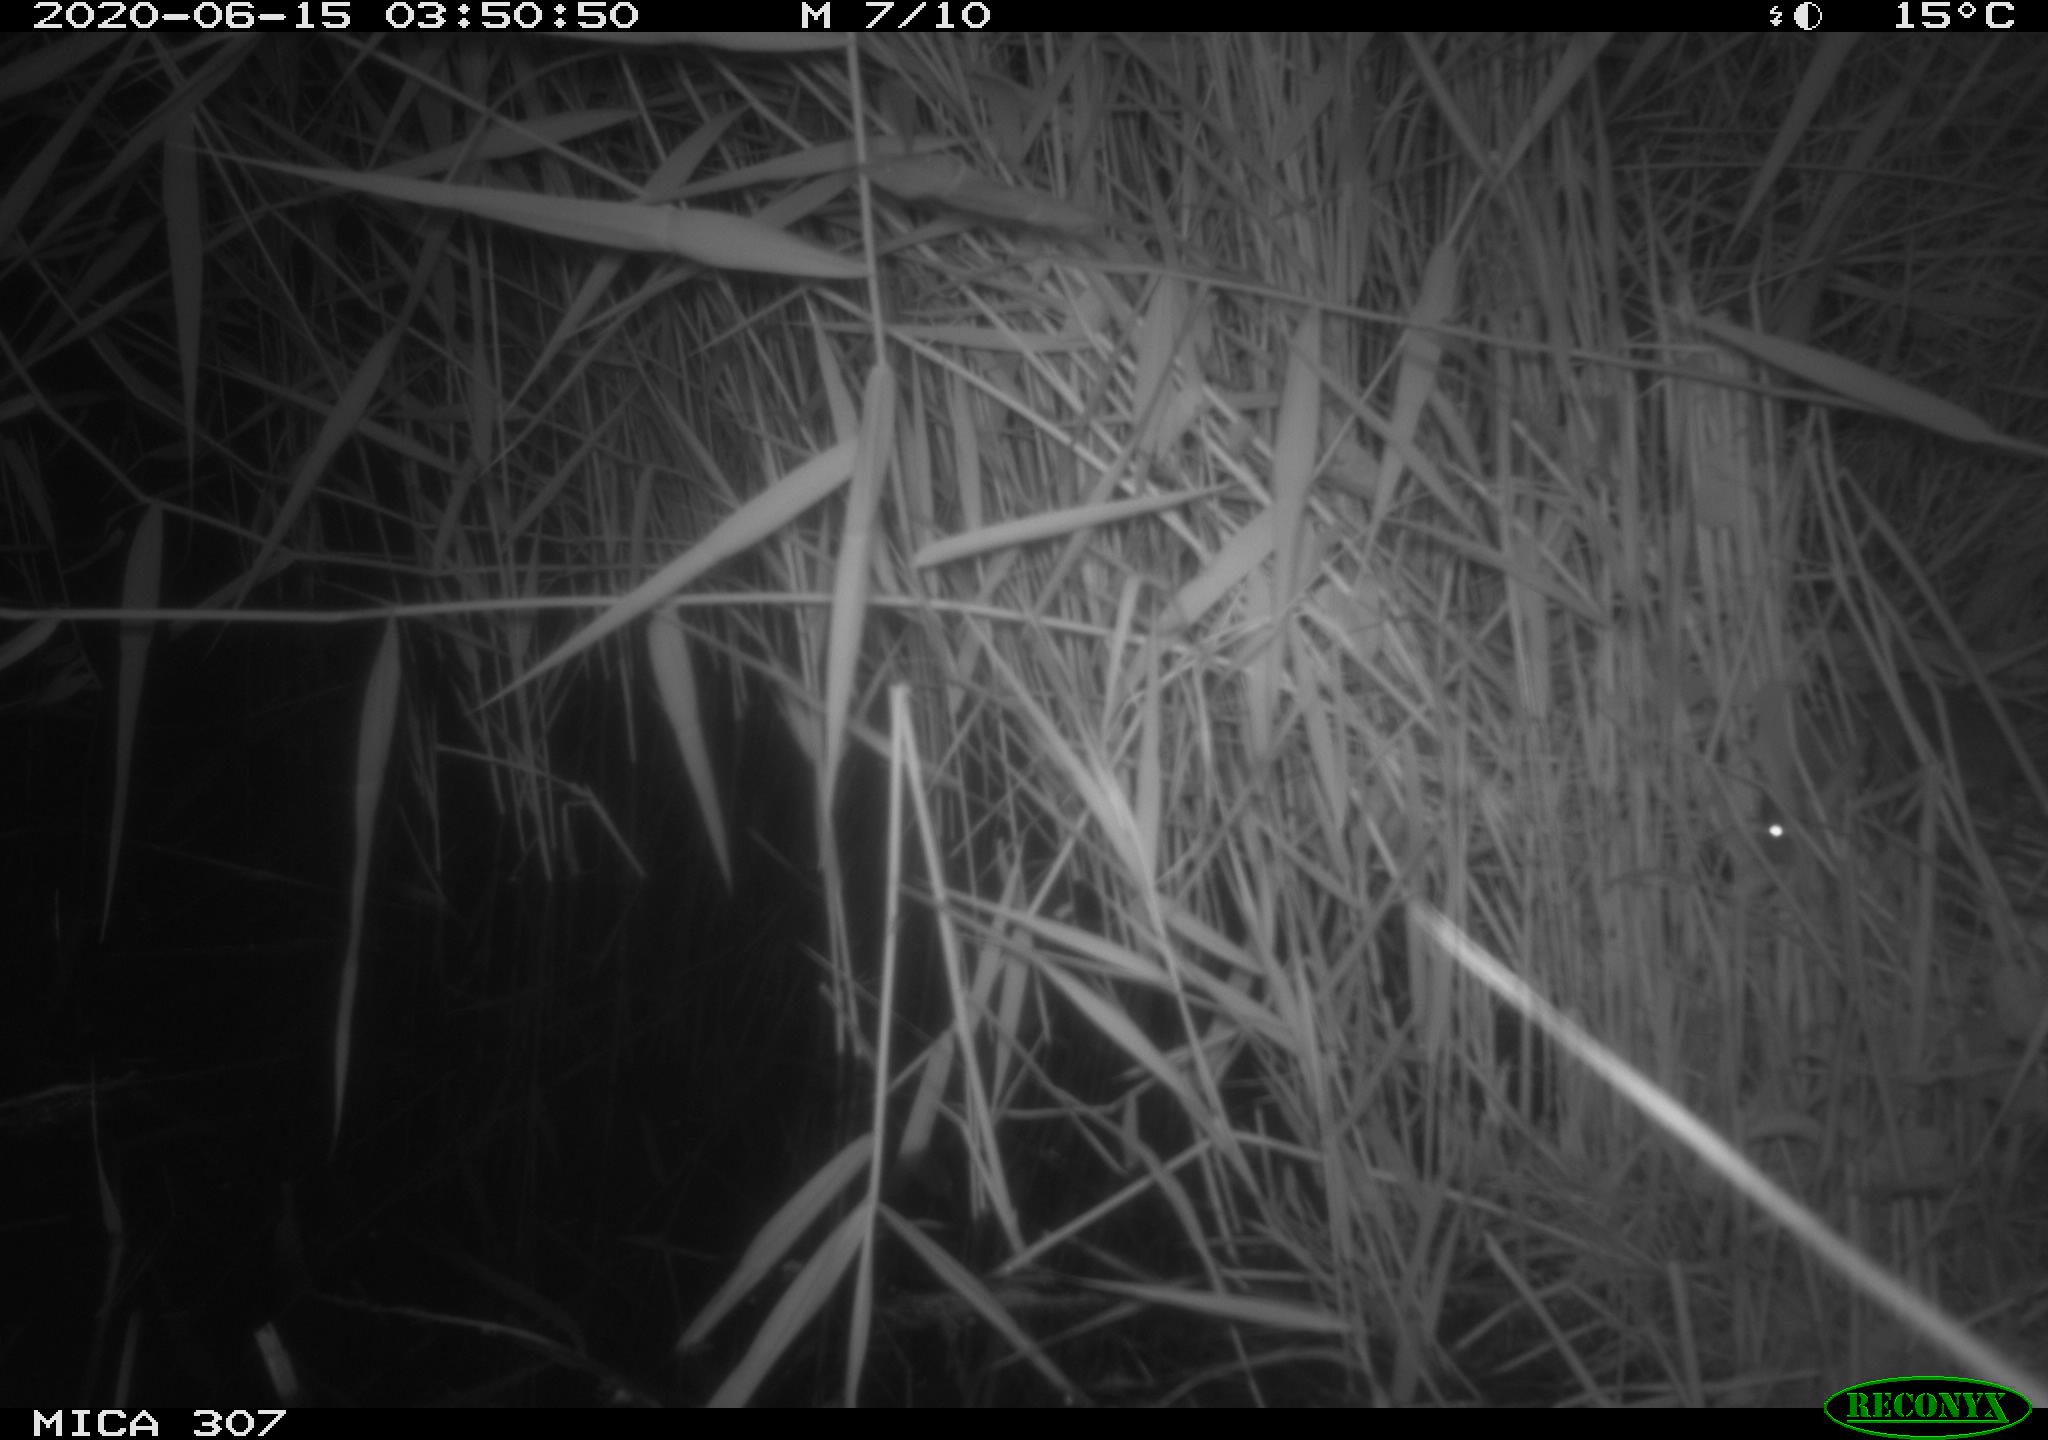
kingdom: Animalia
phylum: Chordata
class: Mammalia
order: Rodentia
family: Muridae
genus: Rattus
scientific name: Rattus norvegicus
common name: Brown rat
